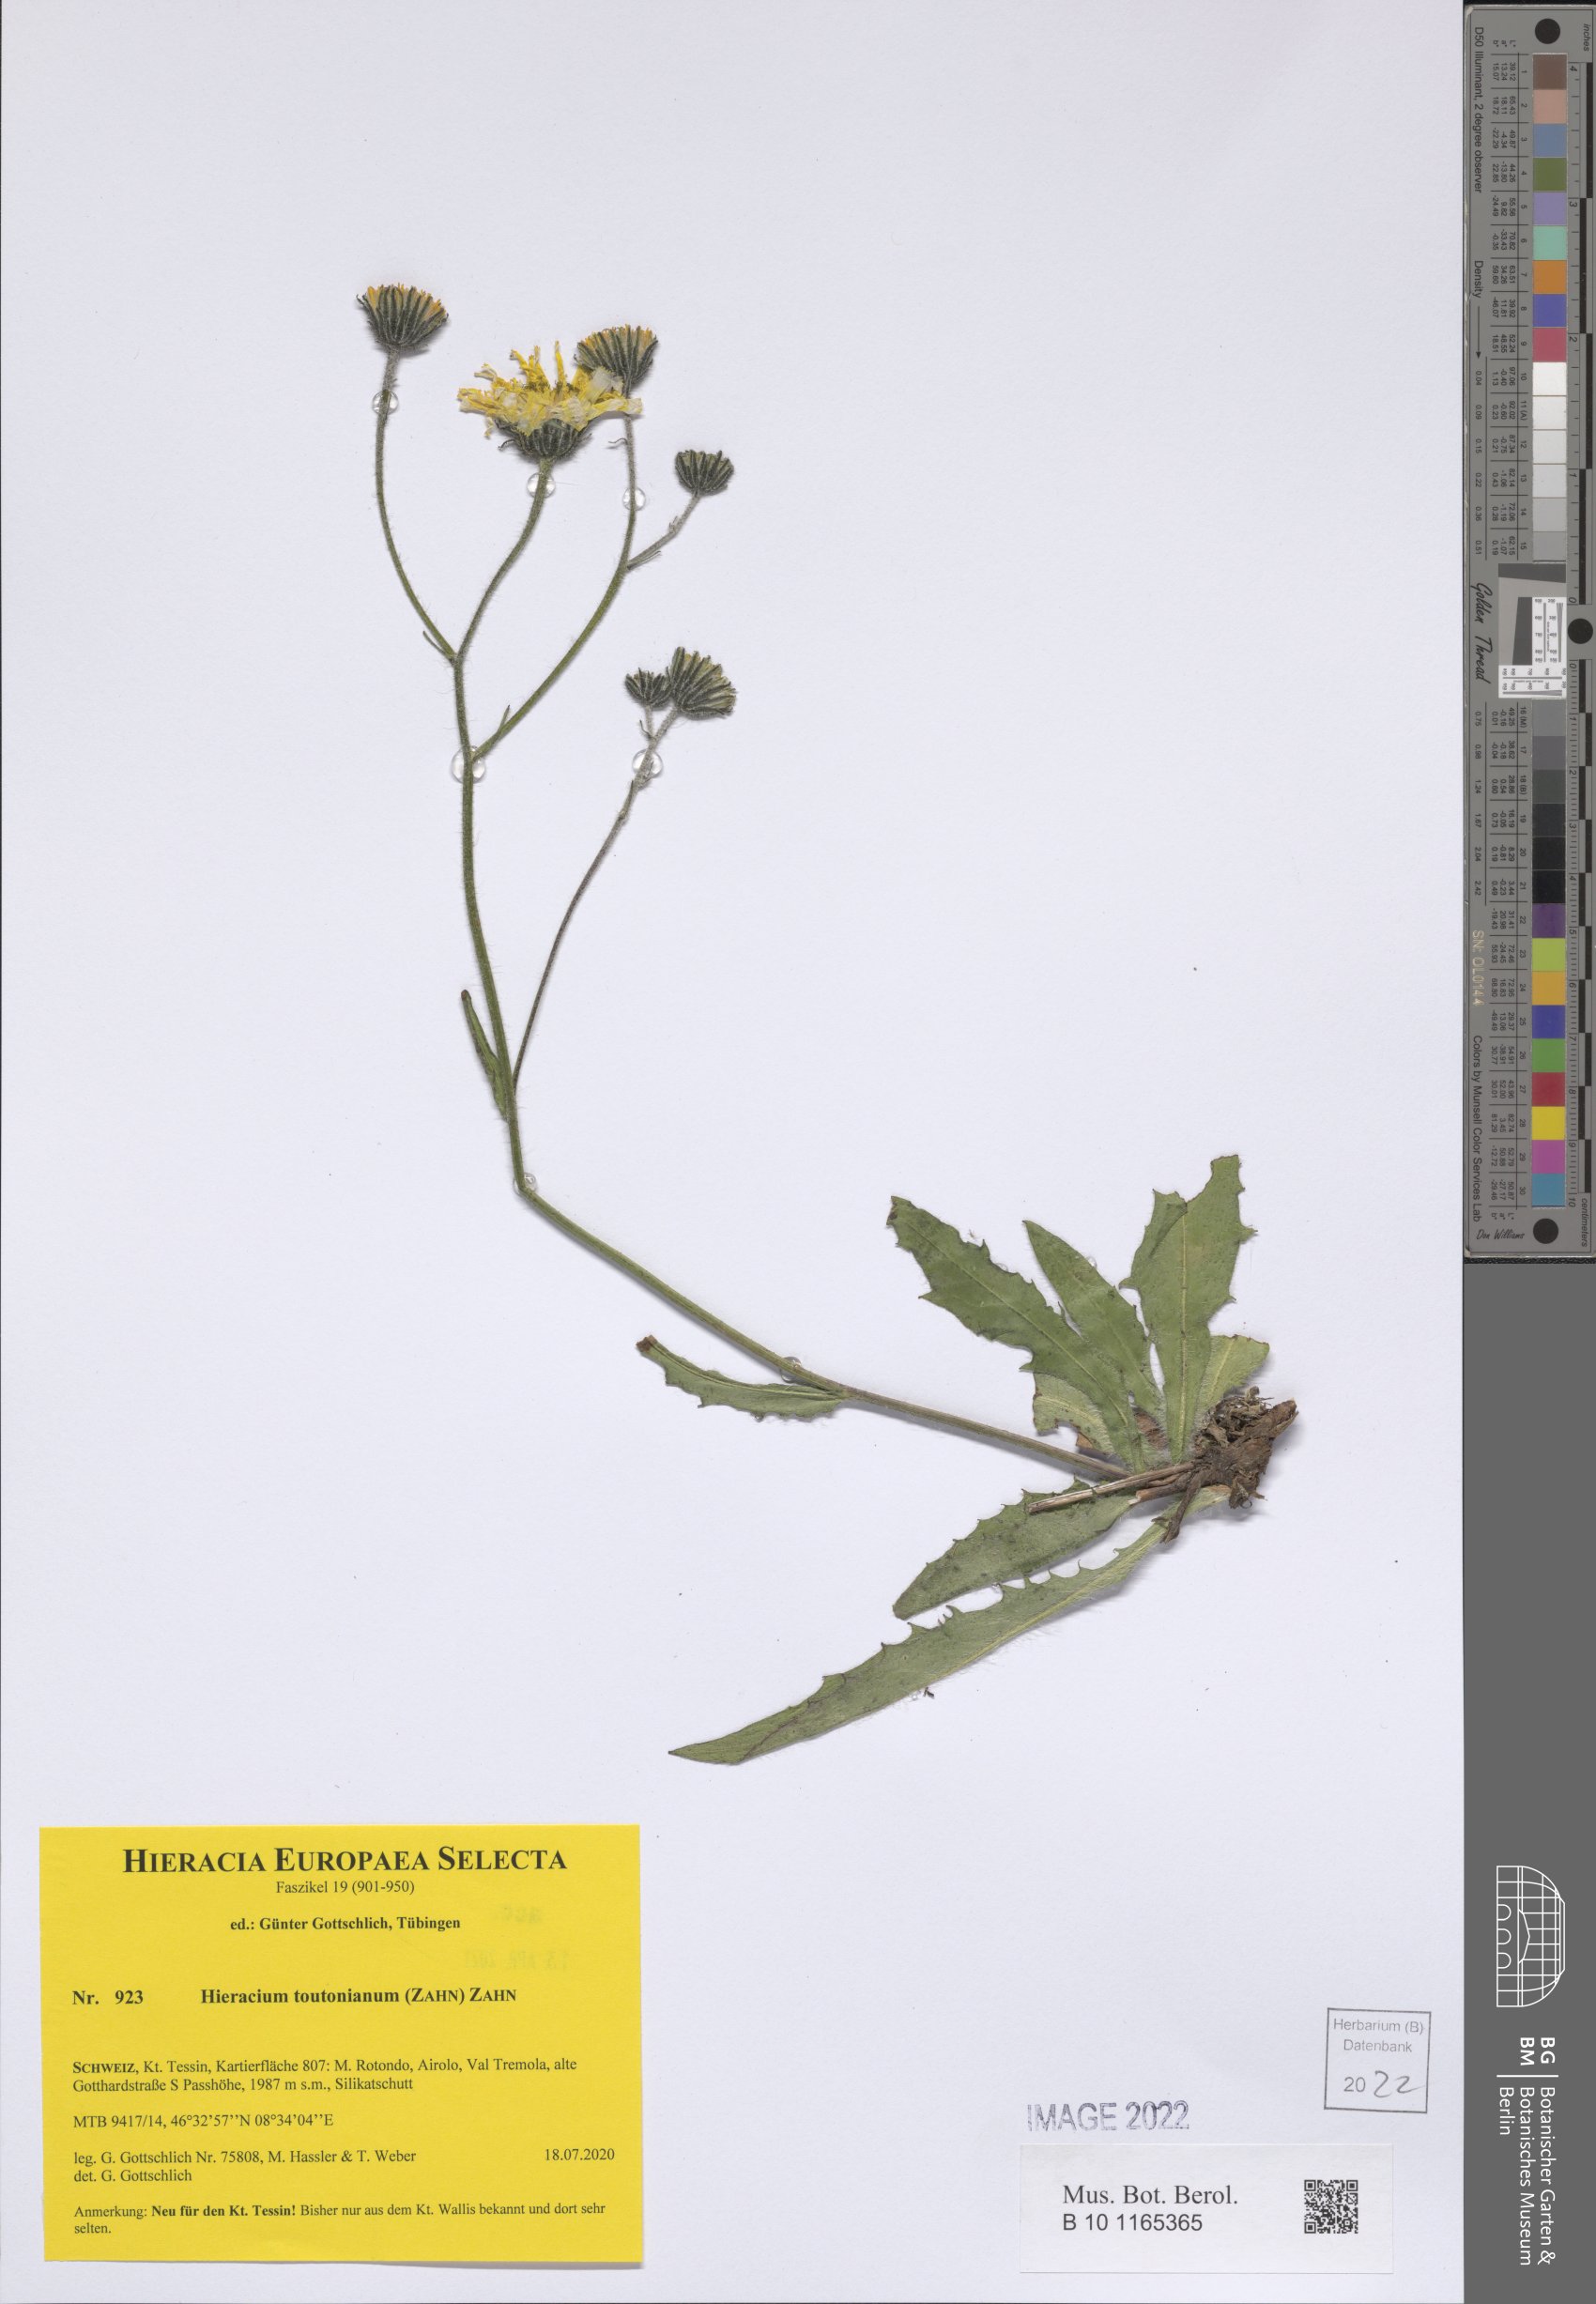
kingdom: Plantae
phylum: Tracheophyta
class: Magnoliopsida
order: Asterales
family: Asteraceae
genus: Hieracium
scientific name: Hieracium toutonianum
